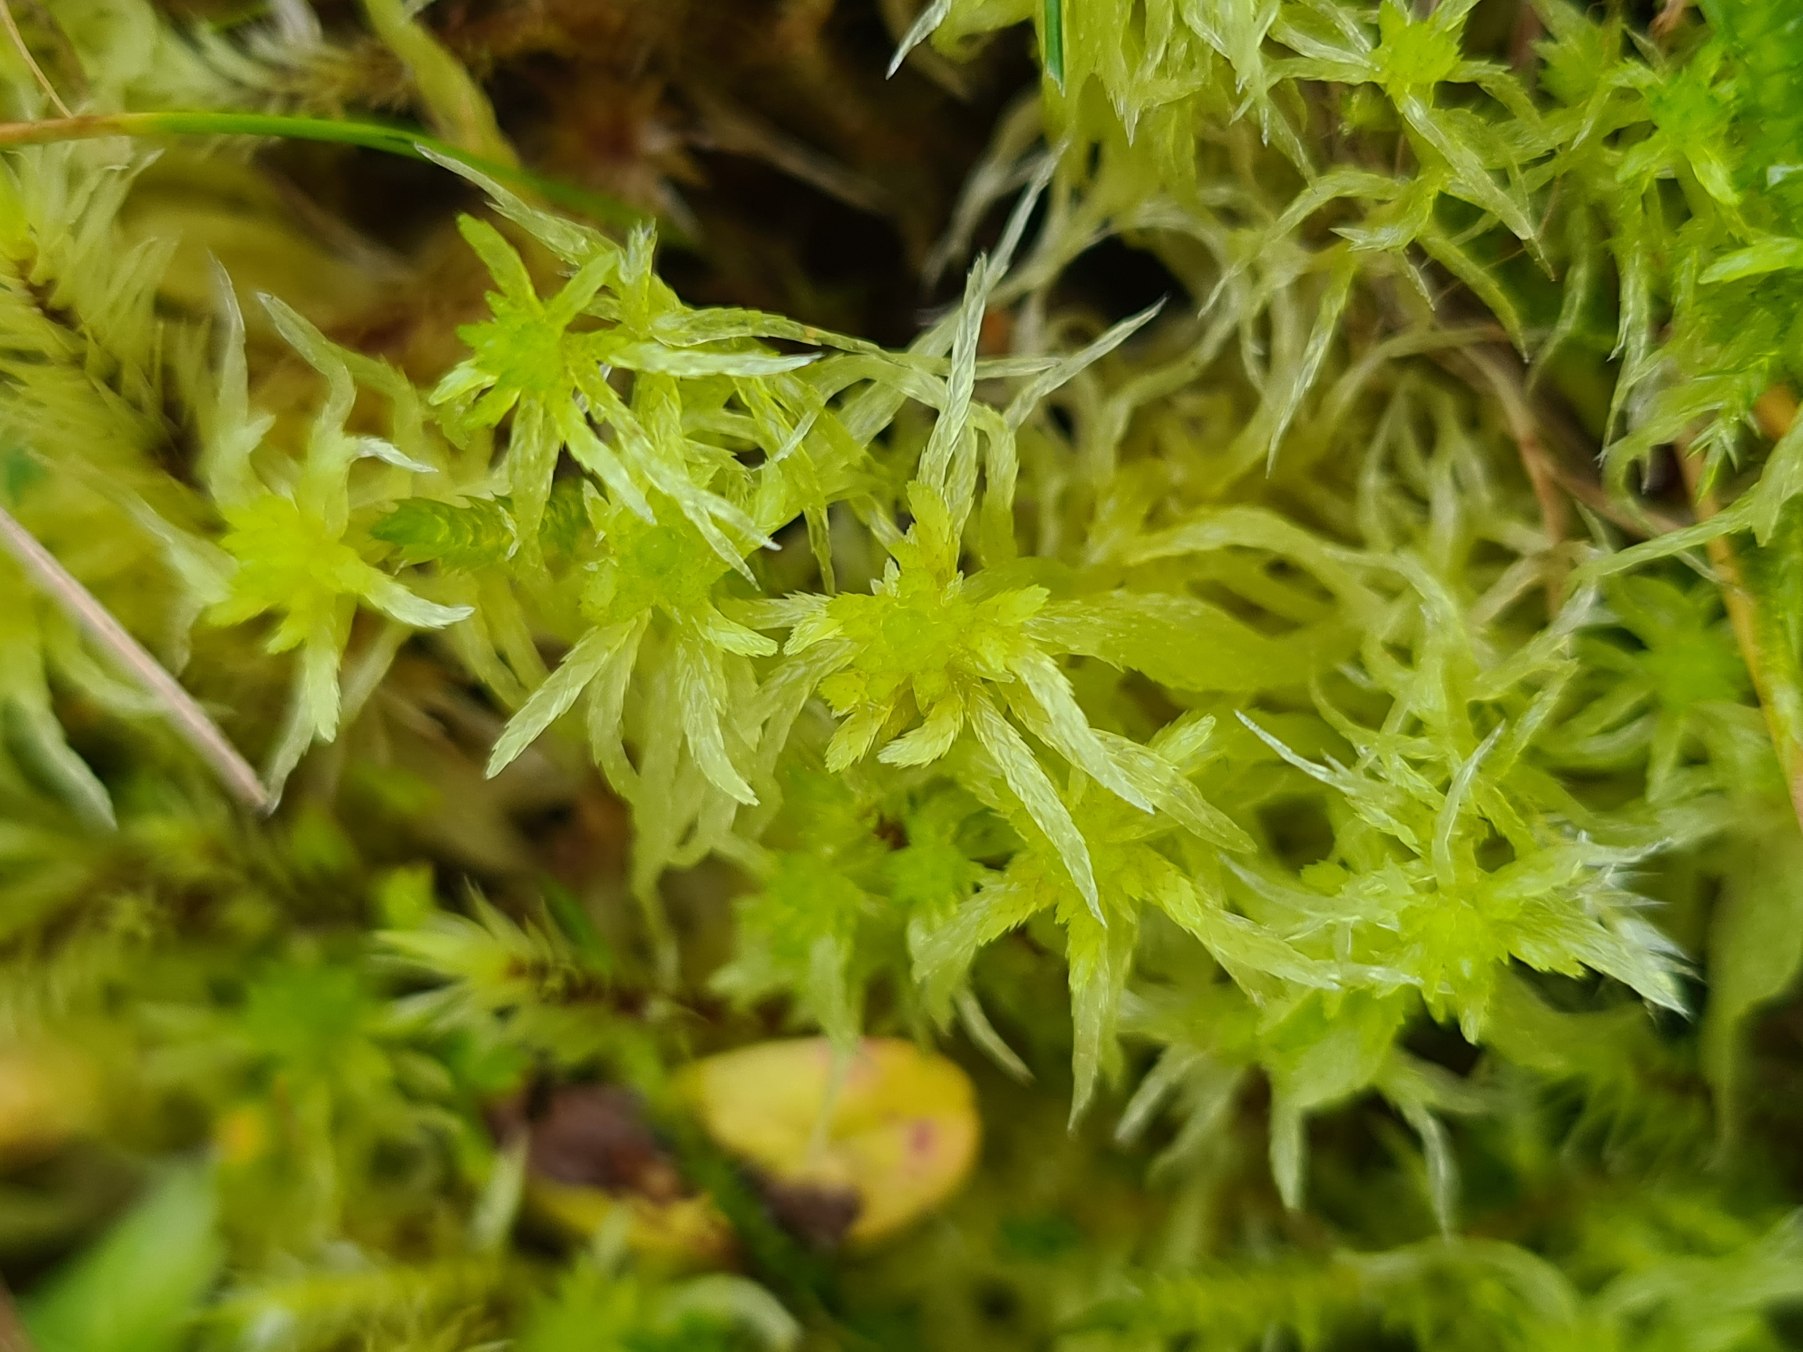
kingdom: Plantae
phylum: Bryophyta
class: Sphagnopsida
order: Sphagnales
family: Sphagnaceae
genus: Sphagnum
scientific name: Sphagnum fimbriatum
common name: Frynset tørvemos
